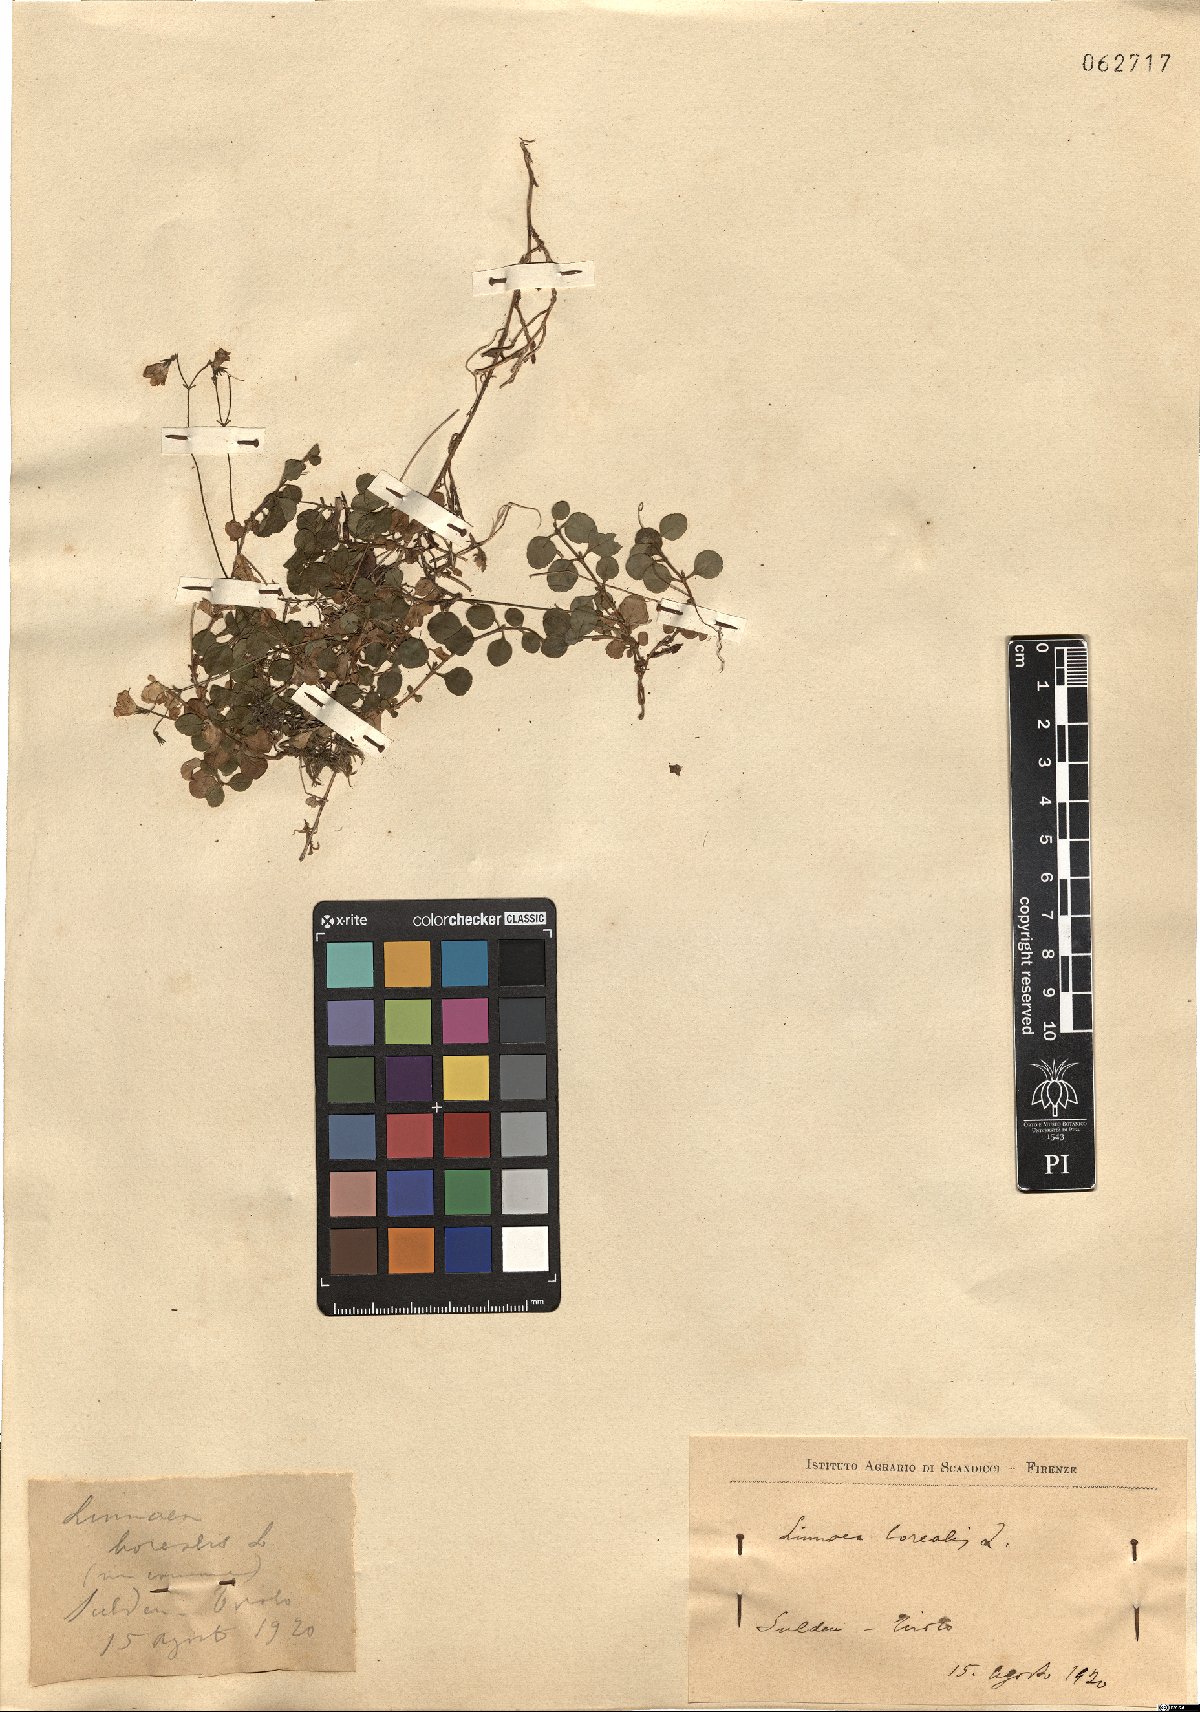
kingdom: Plantae
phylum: Tracheophyta
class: Magnoliopsida
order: Dipsacales
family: Caprifoliaceae
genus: Linnaea
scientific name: Linnaea borealis
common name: Twinflower
